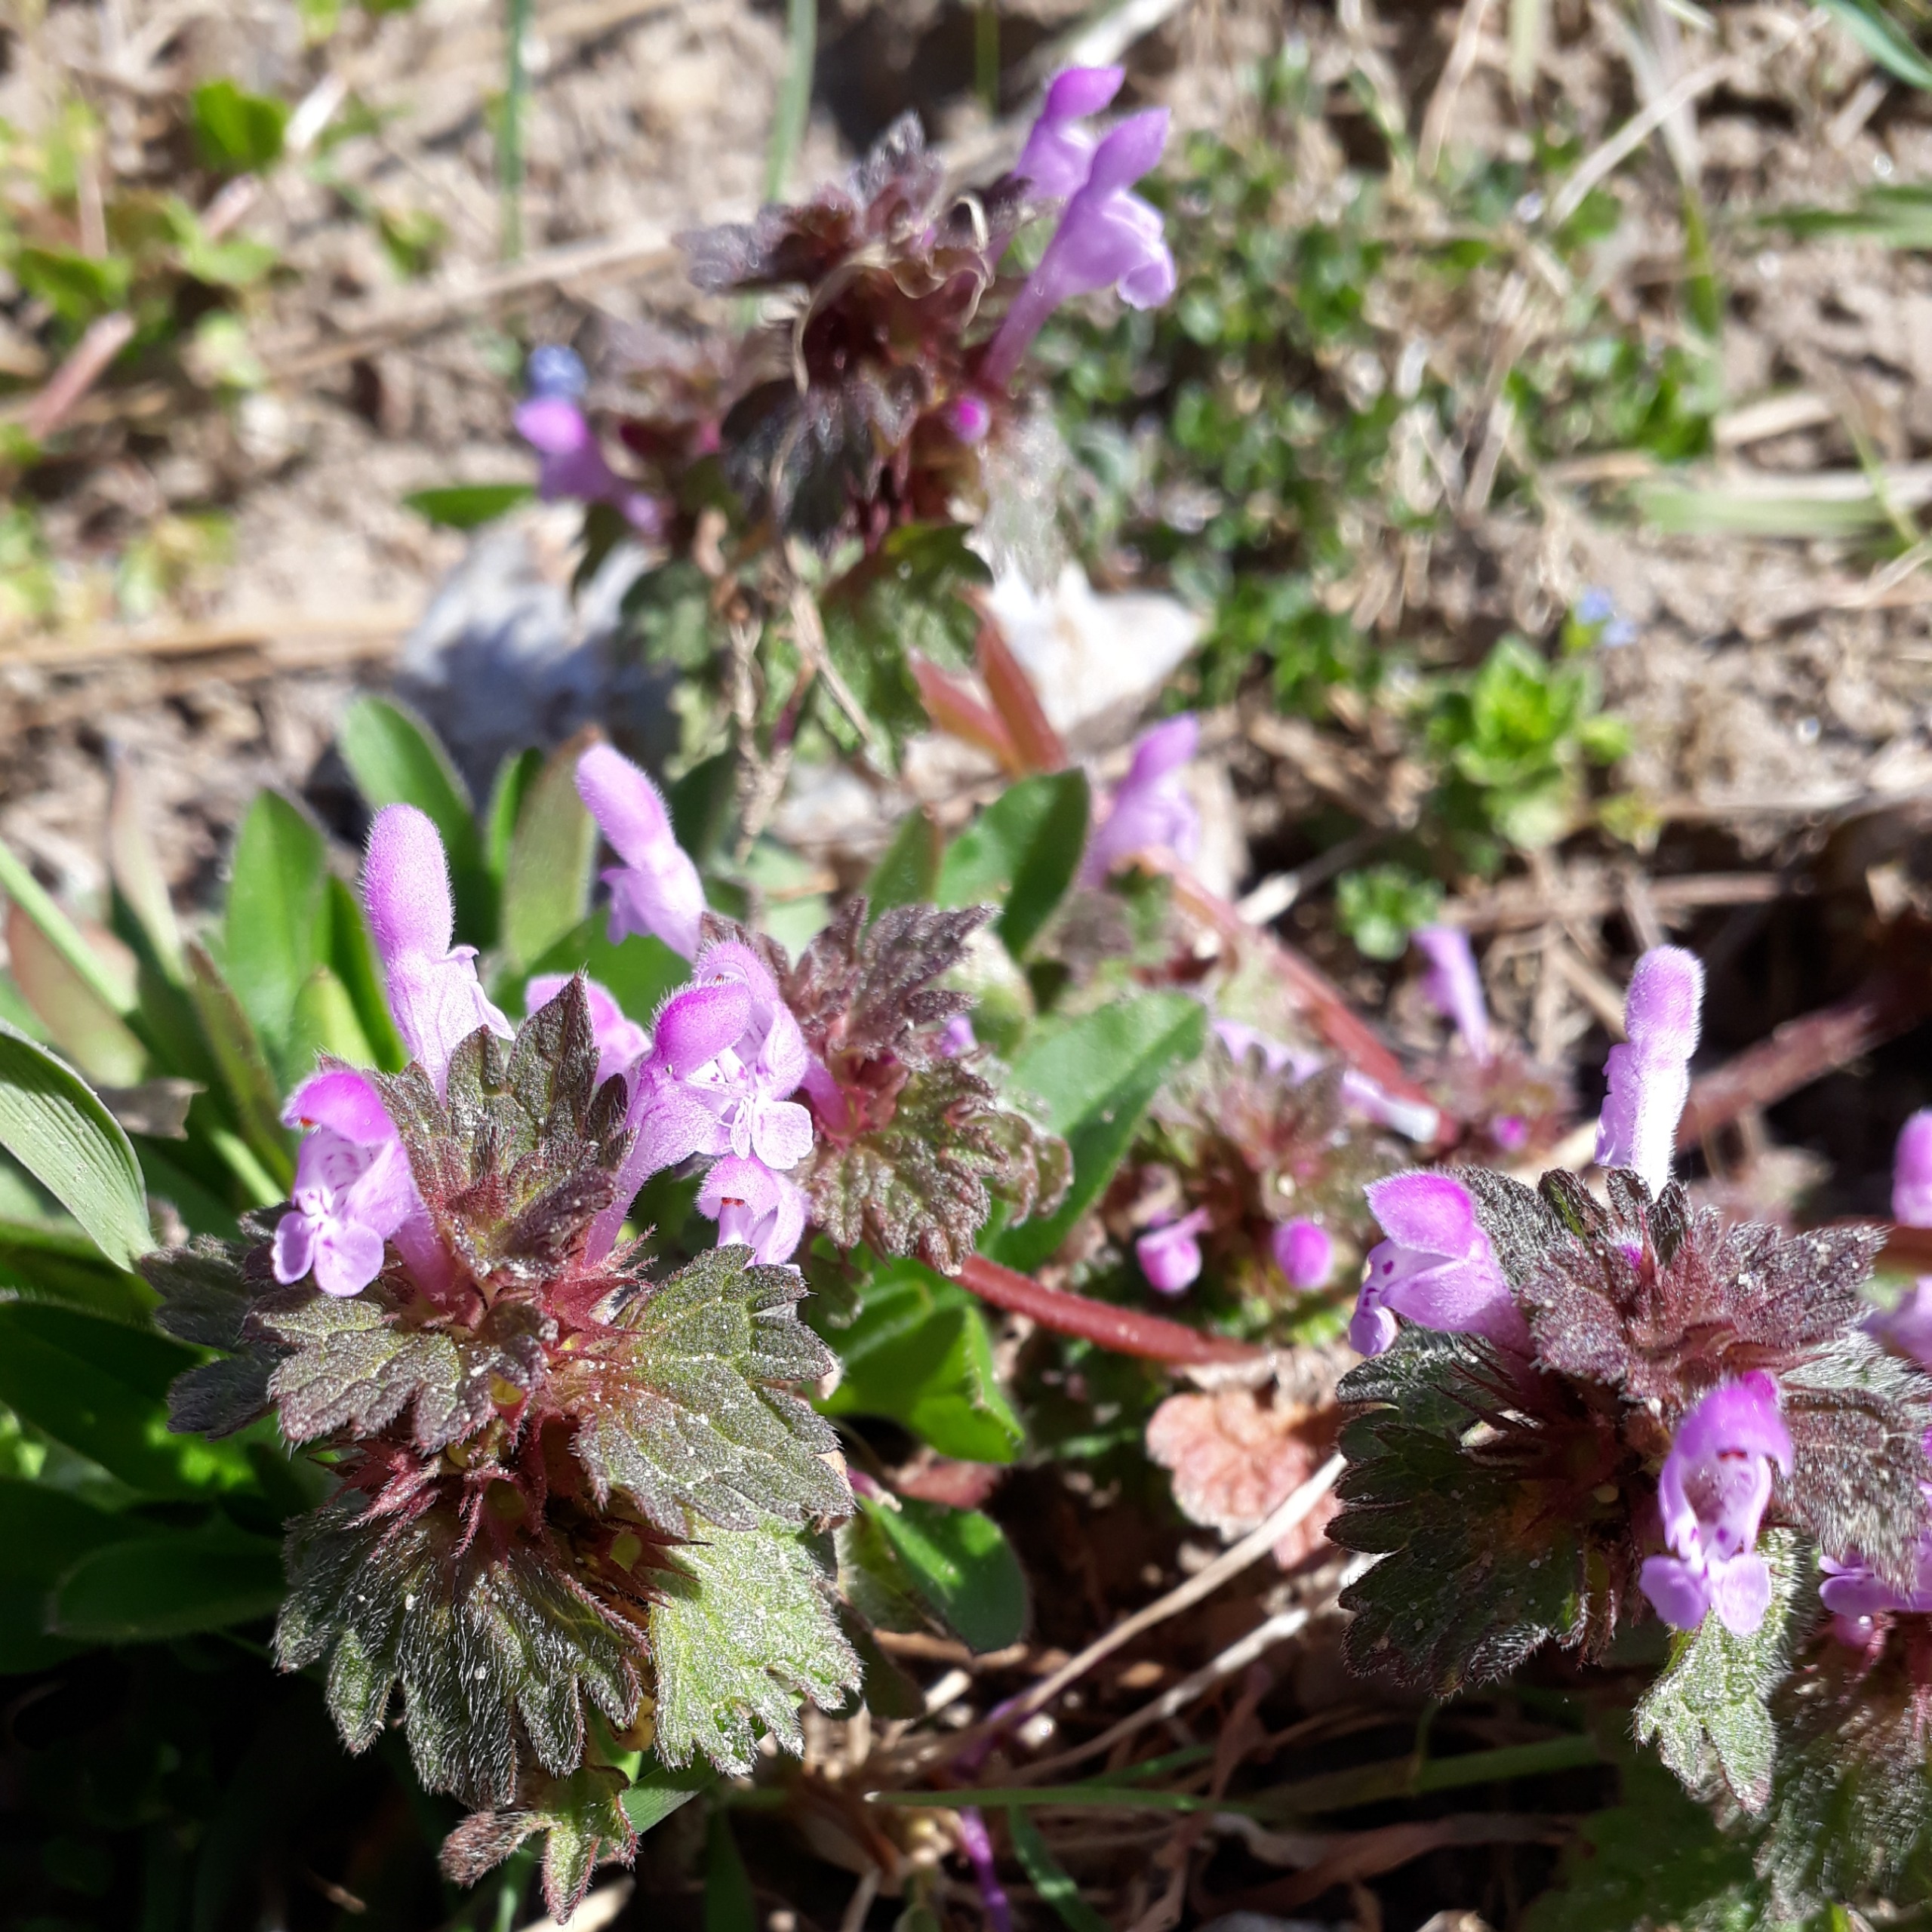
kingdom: Plantae
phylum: Tracheophyta
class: Magnoliopsida
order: Lamiales
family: Lamiaceae
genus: Lamium
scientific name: Lamium hybridum
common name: Fliget tvetand
